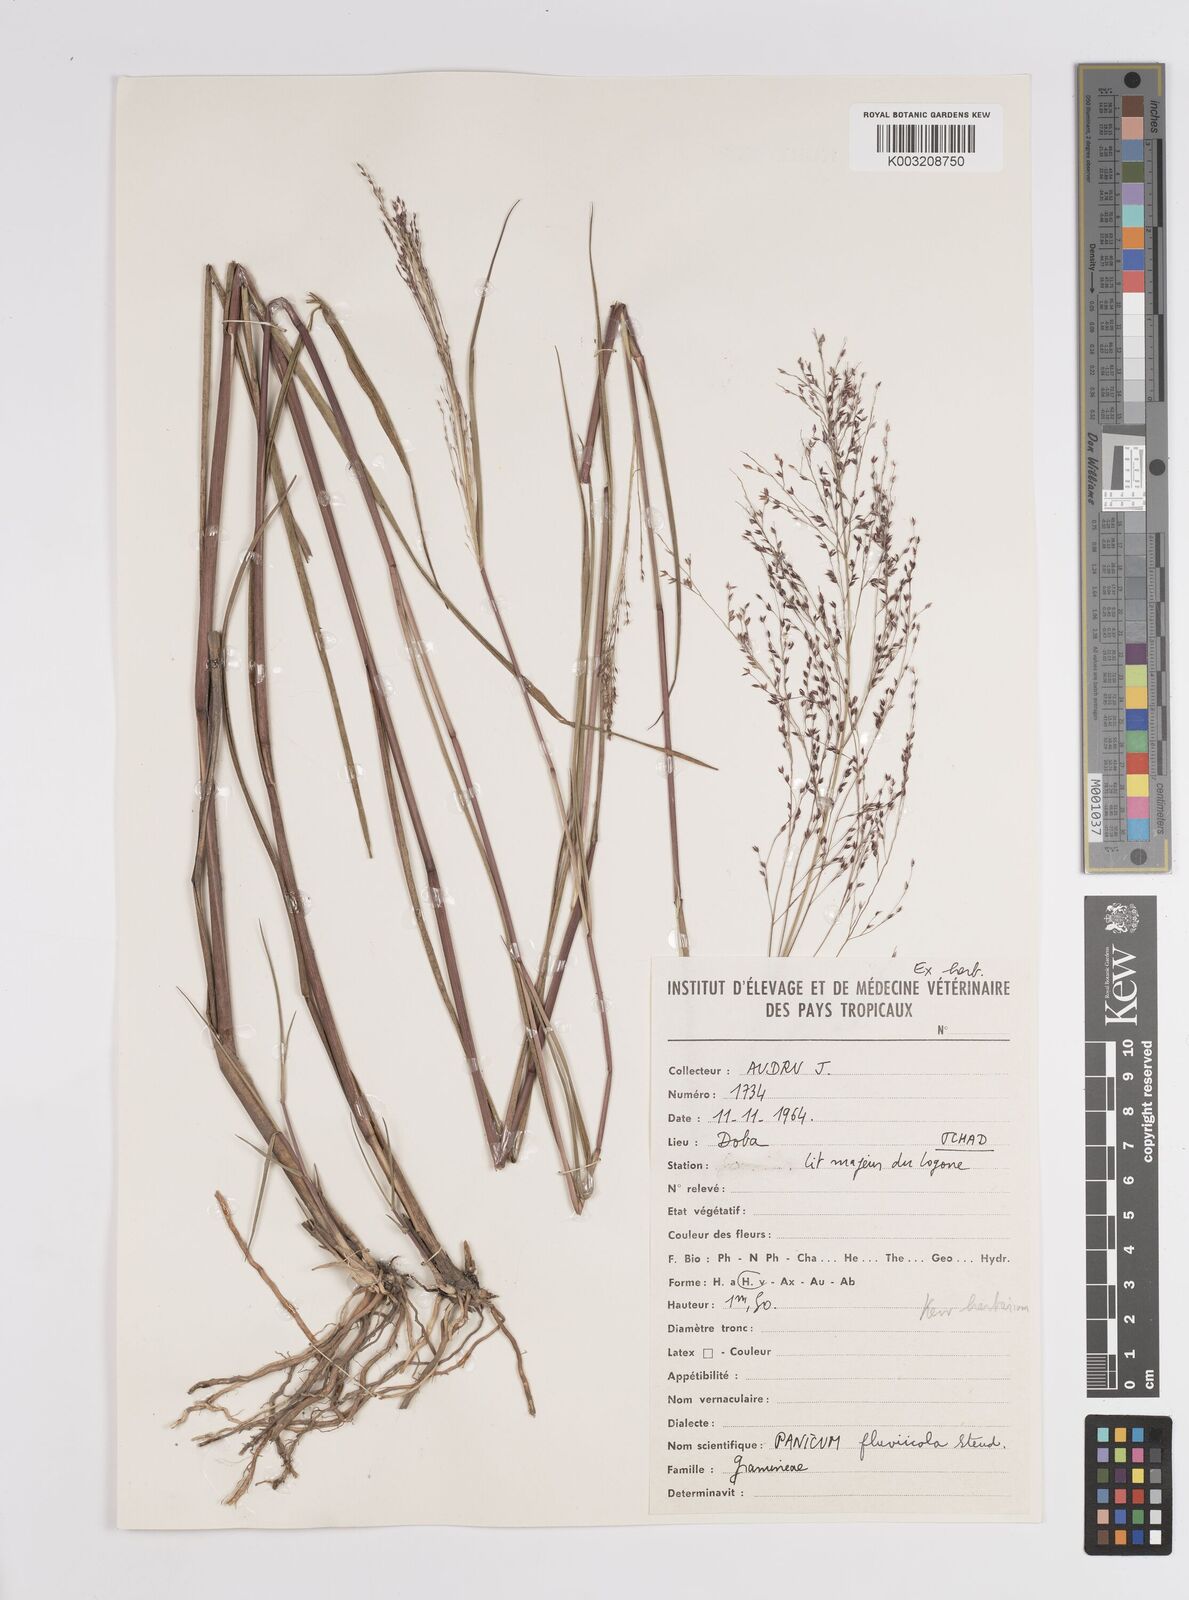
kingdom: Plantae
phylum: Tracheophyta
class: Liliopsida
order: Poales
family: Poaceae
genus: Panicum
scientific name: Panicum fluviicola
